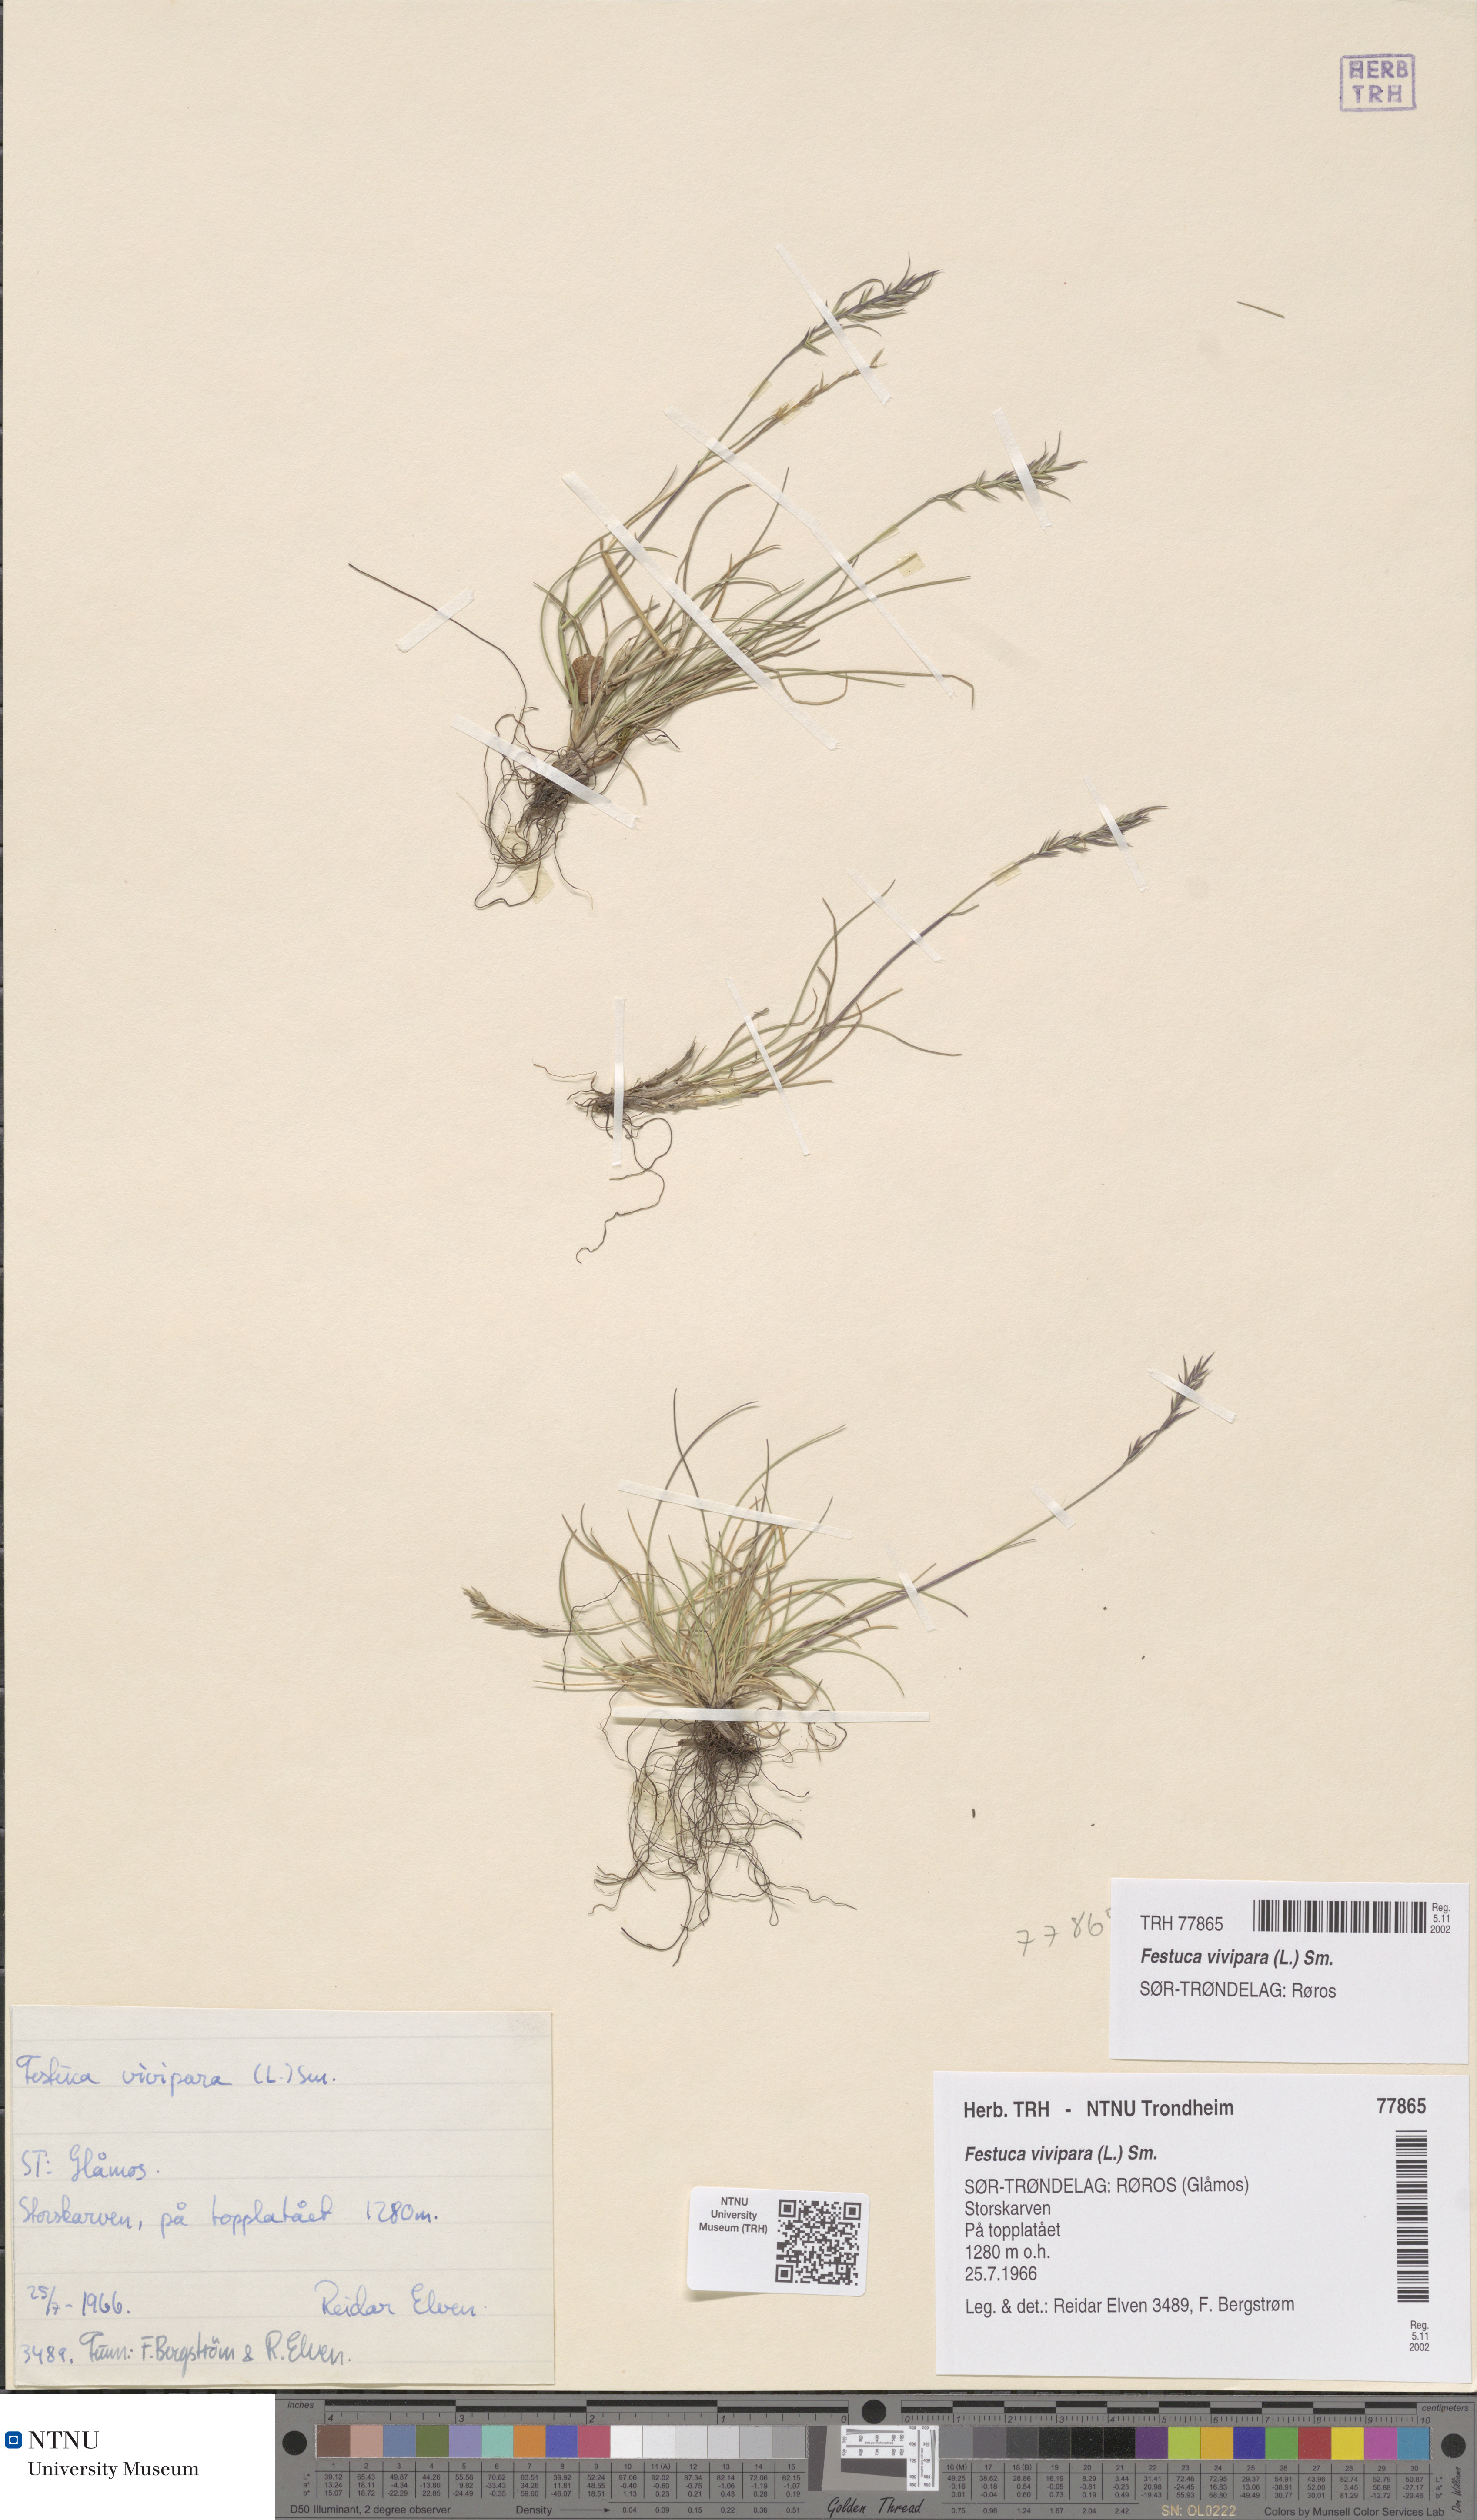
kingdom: Plantae
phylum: Tracheophyta
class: Liliopsida
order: Poales
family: Poaceae
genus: Festuca
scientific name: Festuca vivipara
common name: Viviparous sheep's-fescue
